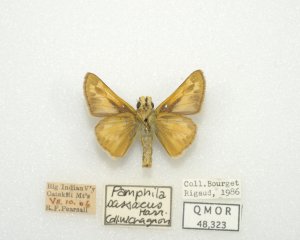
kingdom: Animalia
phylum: Arthropoda
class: Insecta
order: Lepidoptera
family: Hesperiidae
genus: Hesperia
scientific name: Hesperia sassacus
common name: Sassacus Skipper
